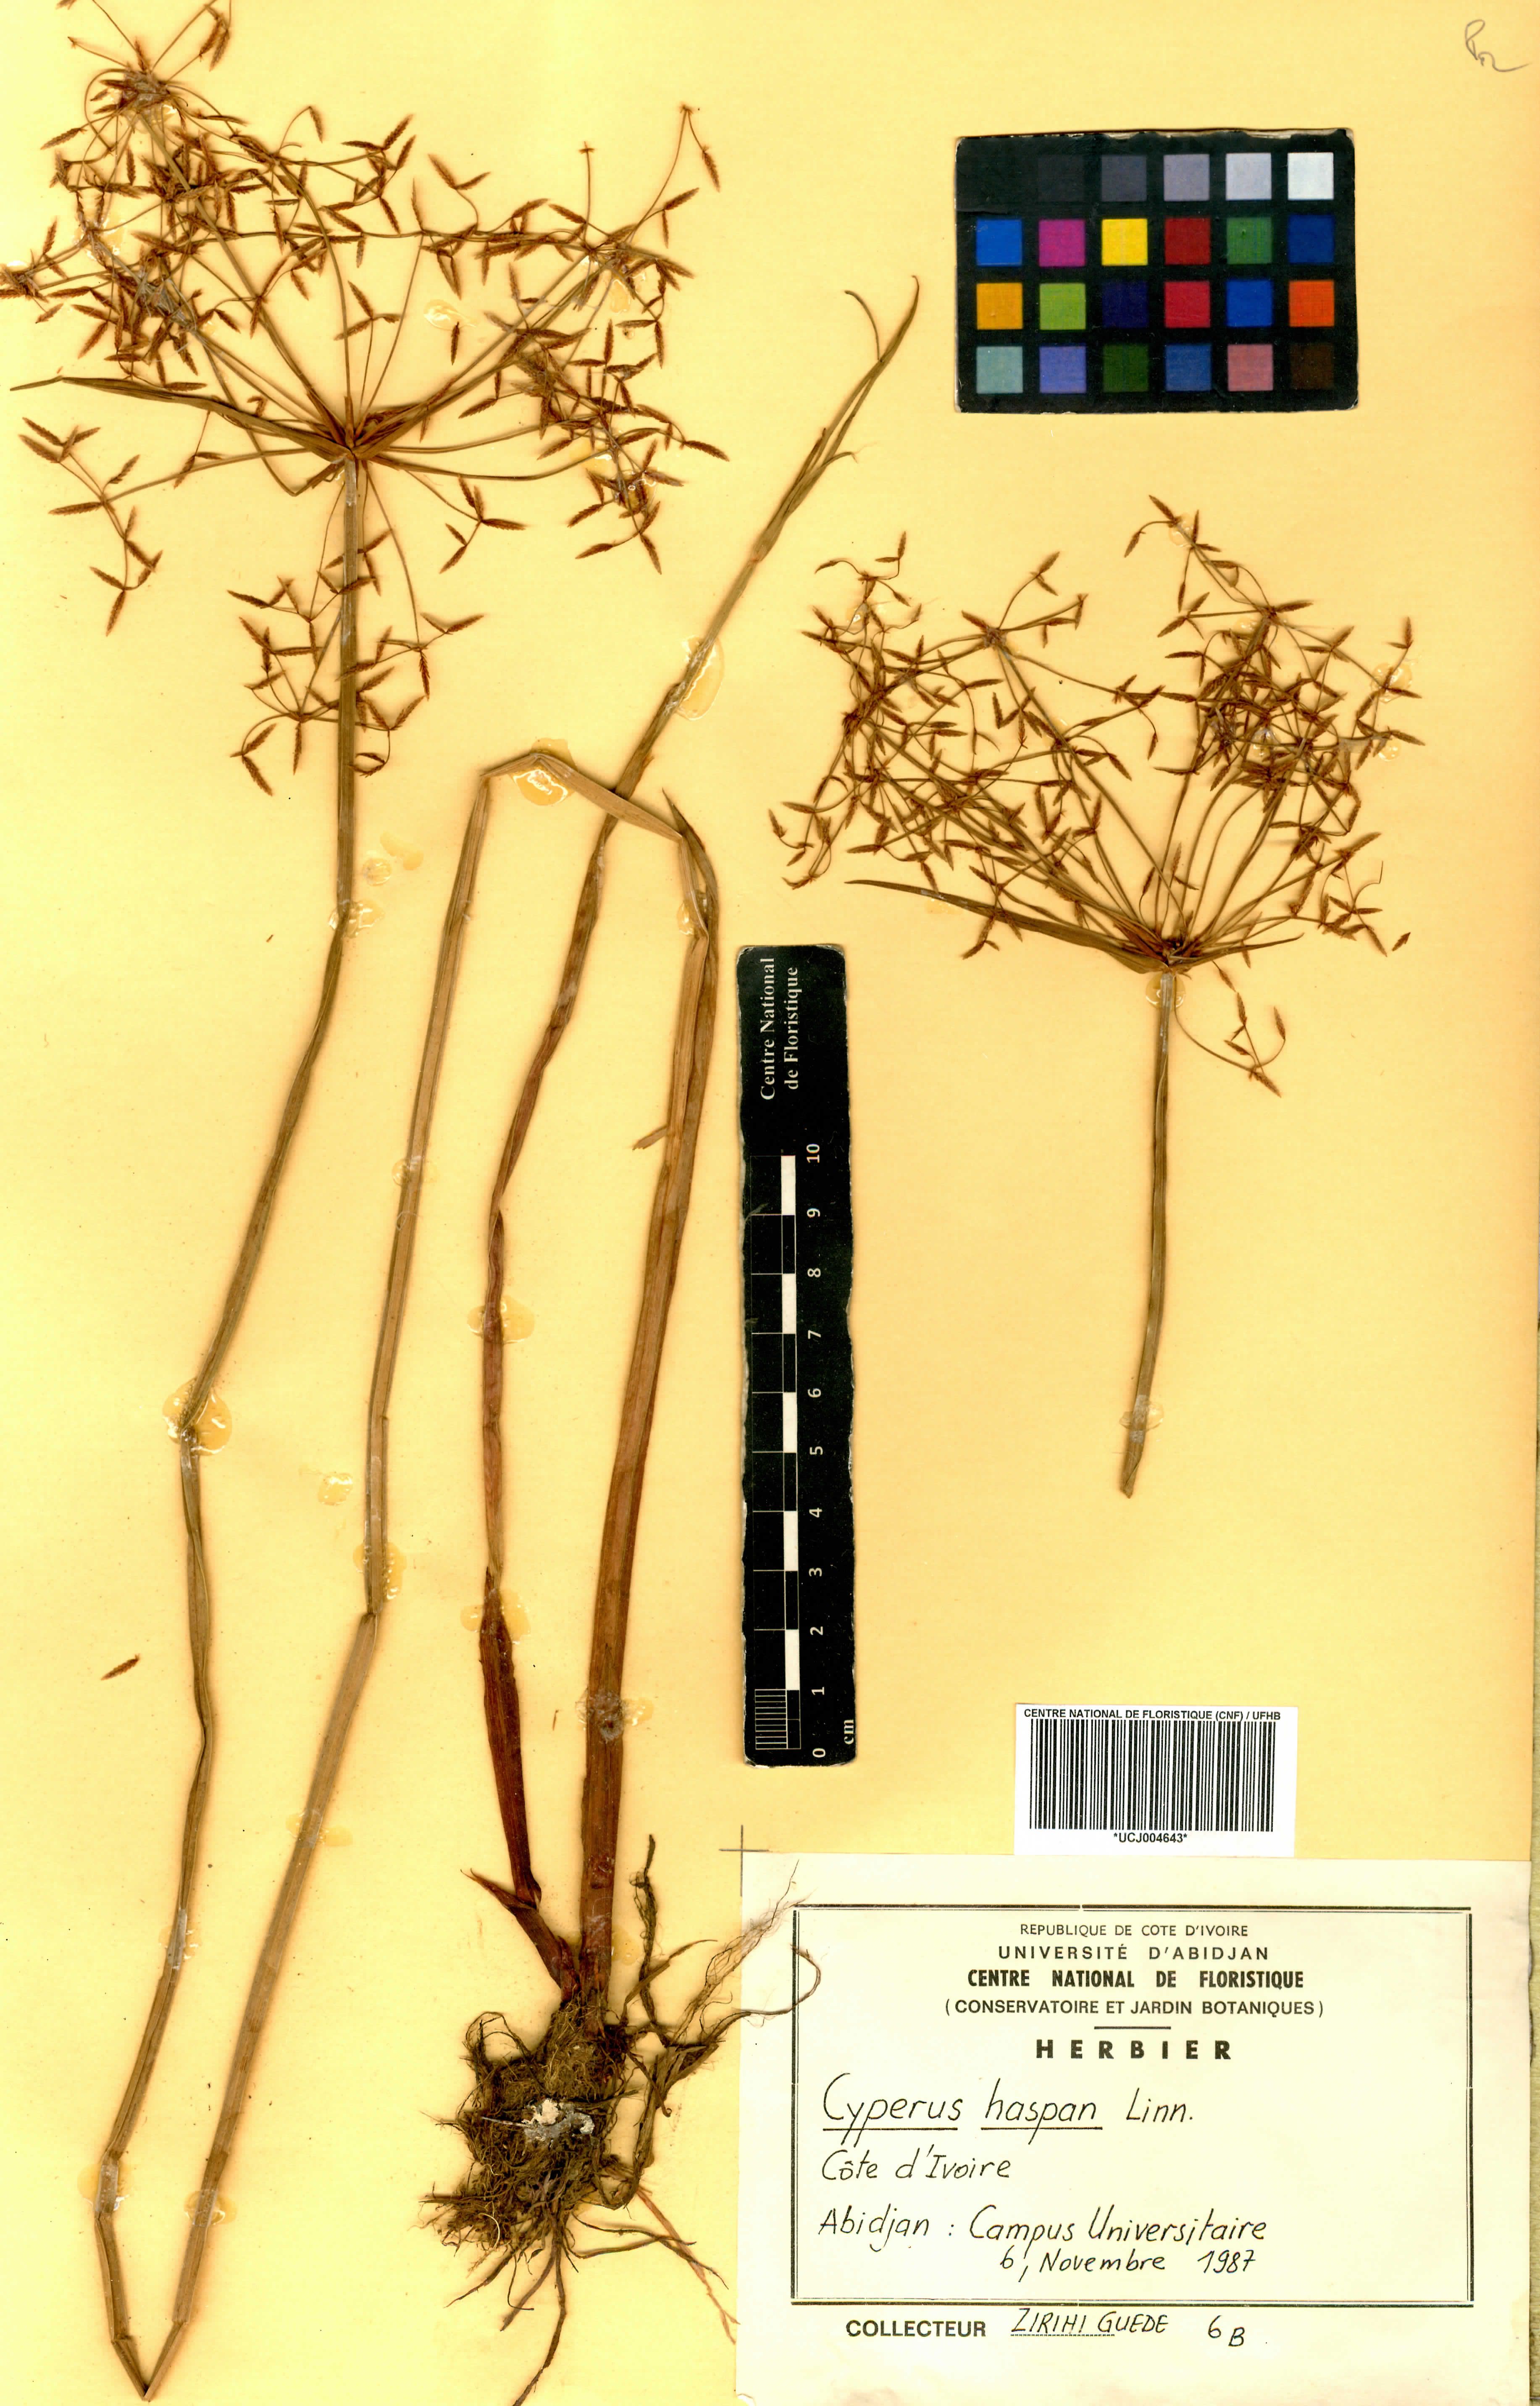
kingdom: Plantae
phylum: Tracheophyta
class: Liliopsida
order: Poales
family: Cyperaceae
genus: Cyperus
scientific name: Cyperus haspan
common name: Haspan flatsedge
